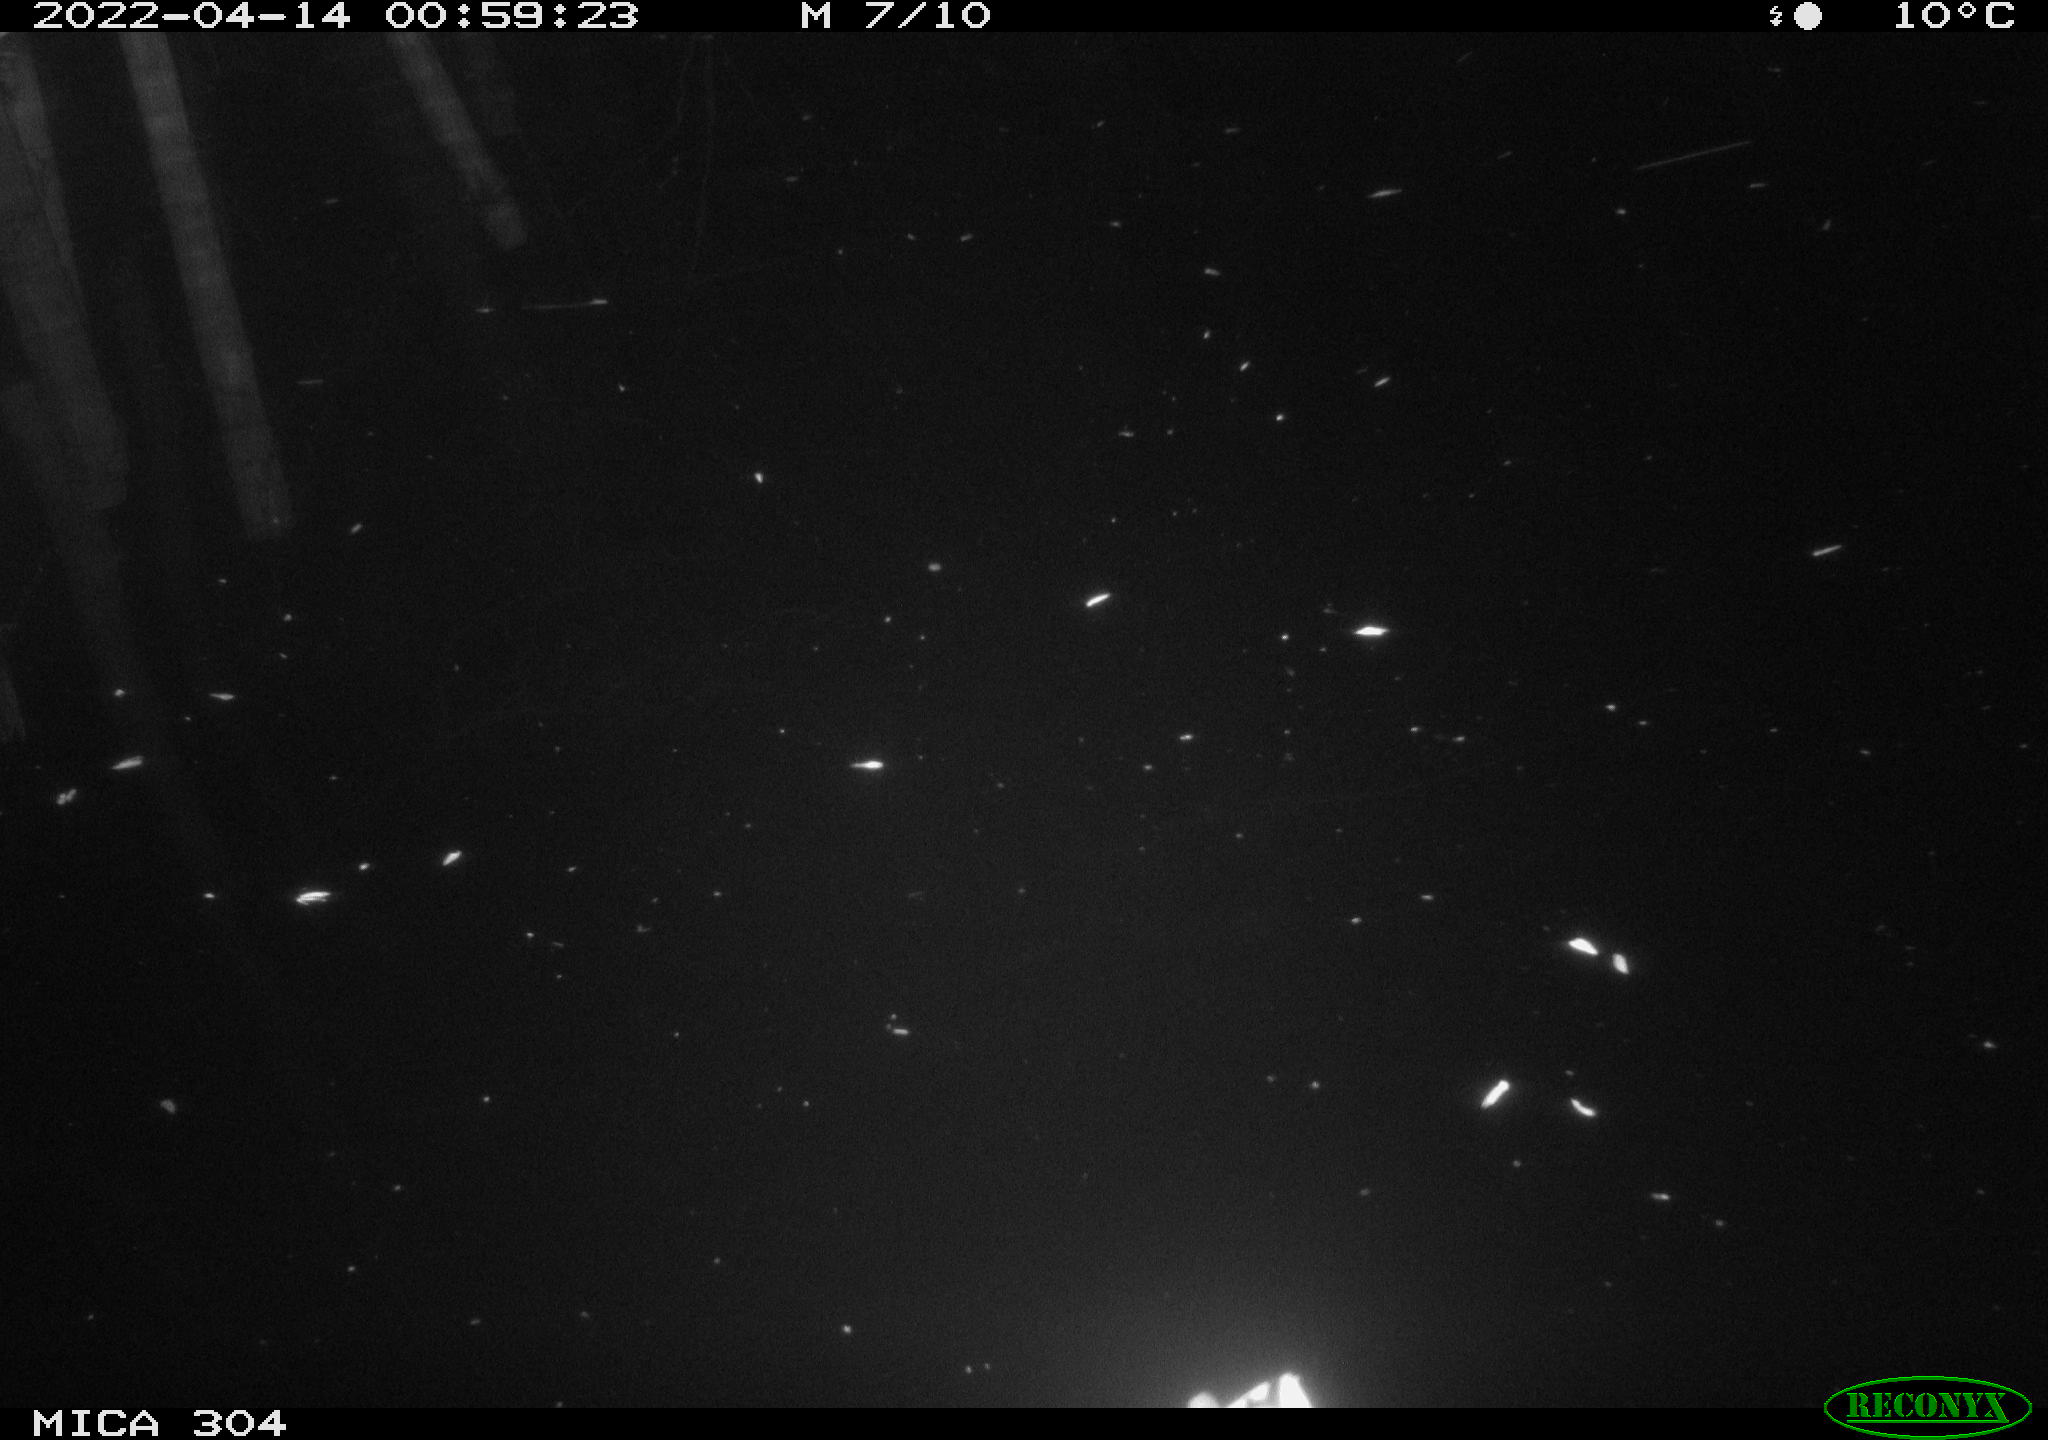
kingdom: Animalia
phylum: Chordata
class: Aves
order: Anseriformes
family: Anatidae
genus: Anas
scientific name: Anas platyrhynchos
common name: Mallard
